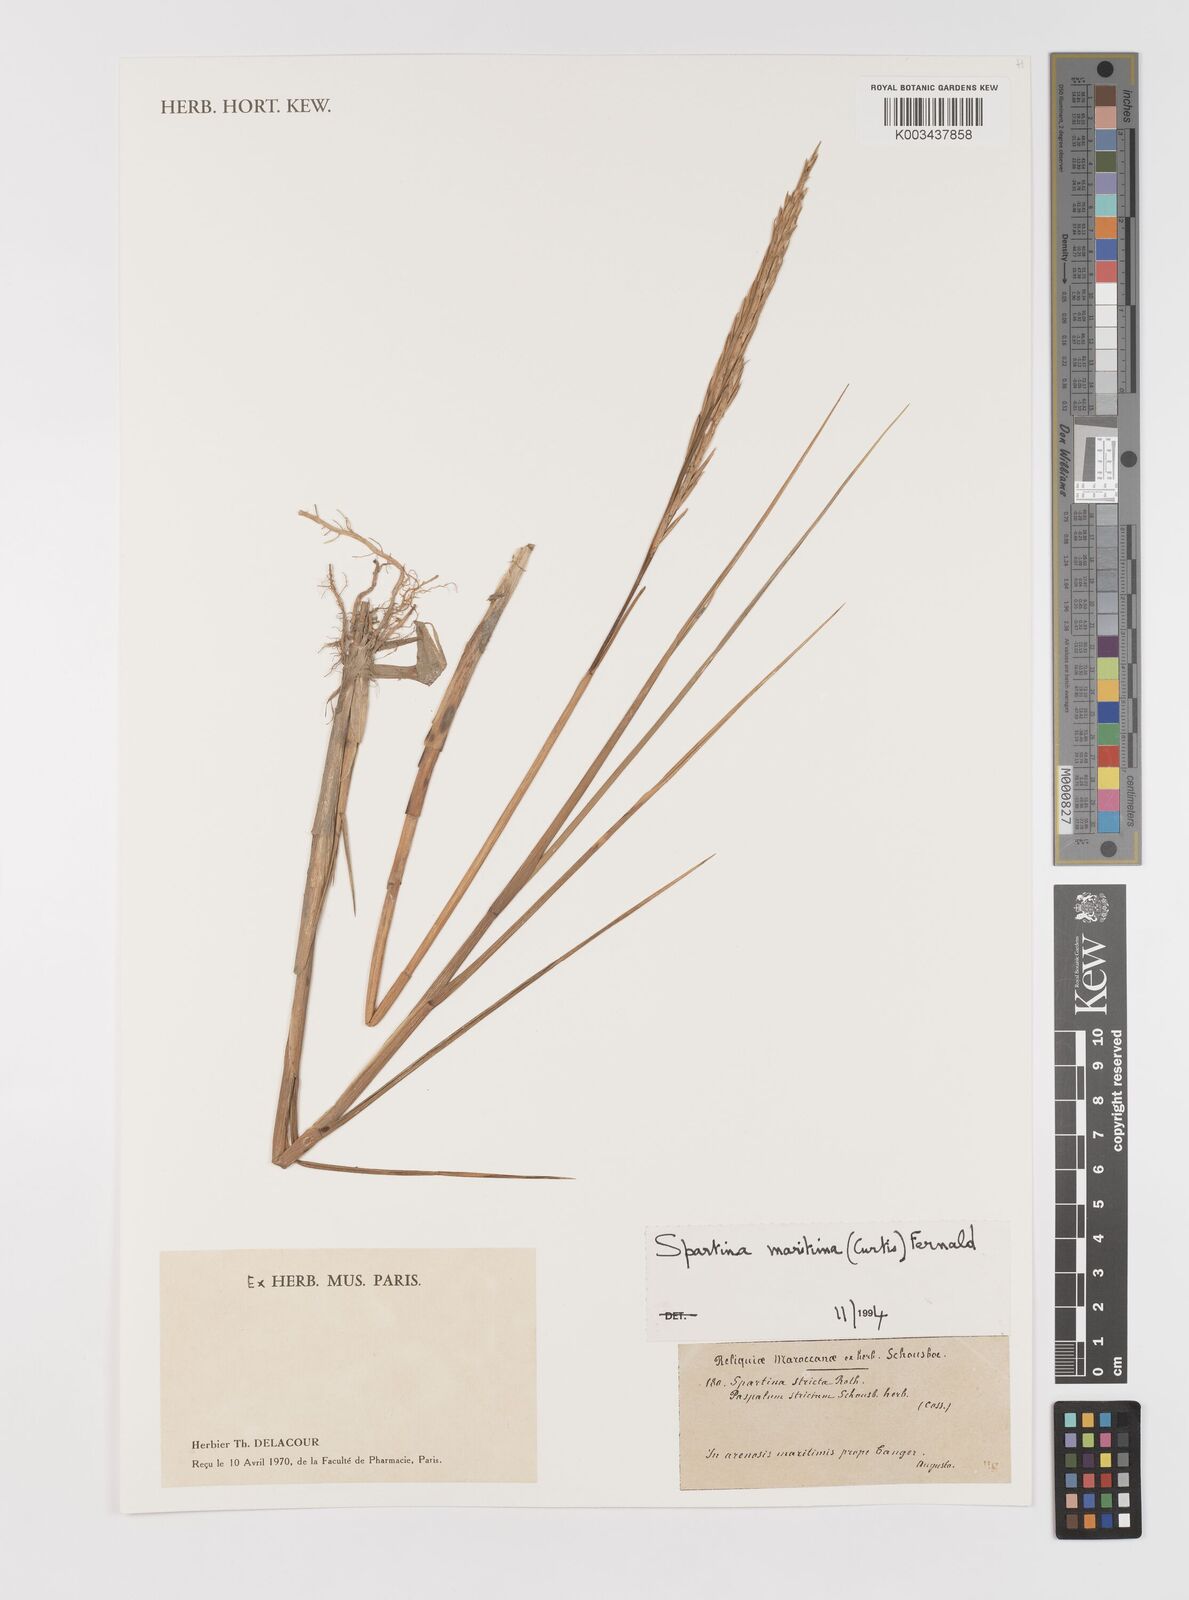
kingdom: Plantae
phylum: Tracheophyta
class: Liliopsida
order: Poales
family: Poaceae
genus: Sporobolus
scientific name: Sporobolus maritimus
